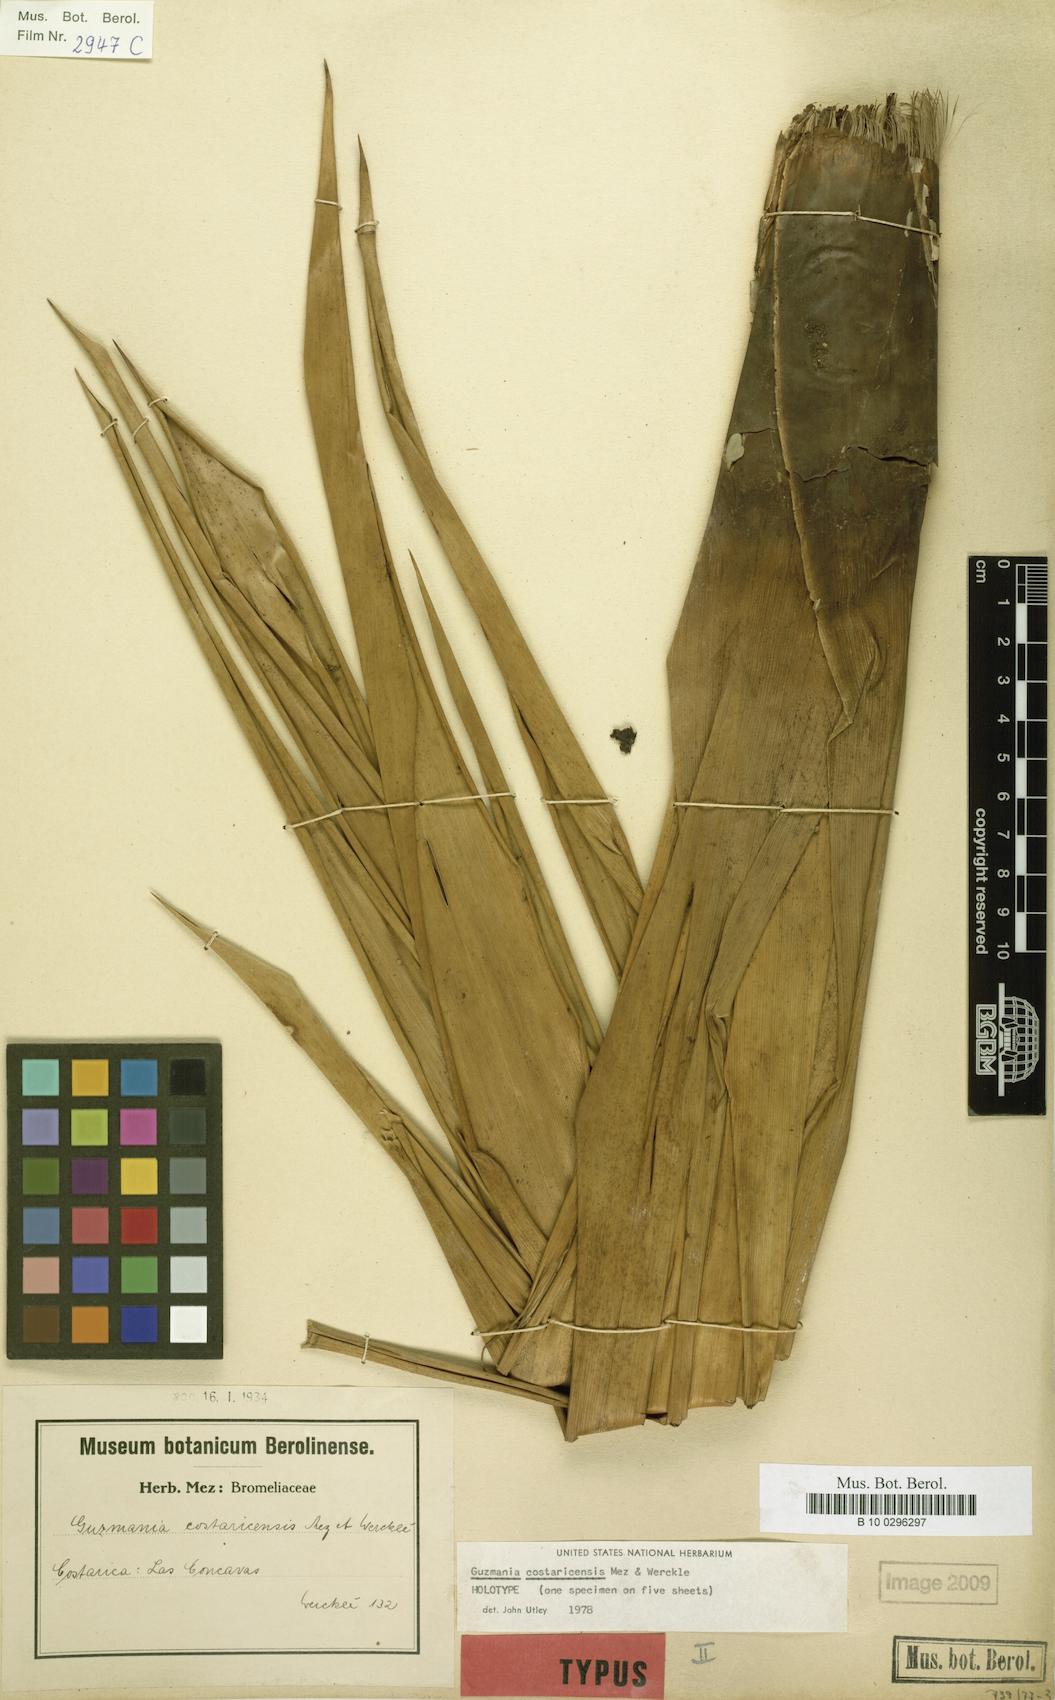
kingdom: Plantae
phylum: Tracheophyta
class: Liliopsida
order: Poales
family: Bromeliaceae
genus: Guzmania
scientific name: Guzmania condensata
